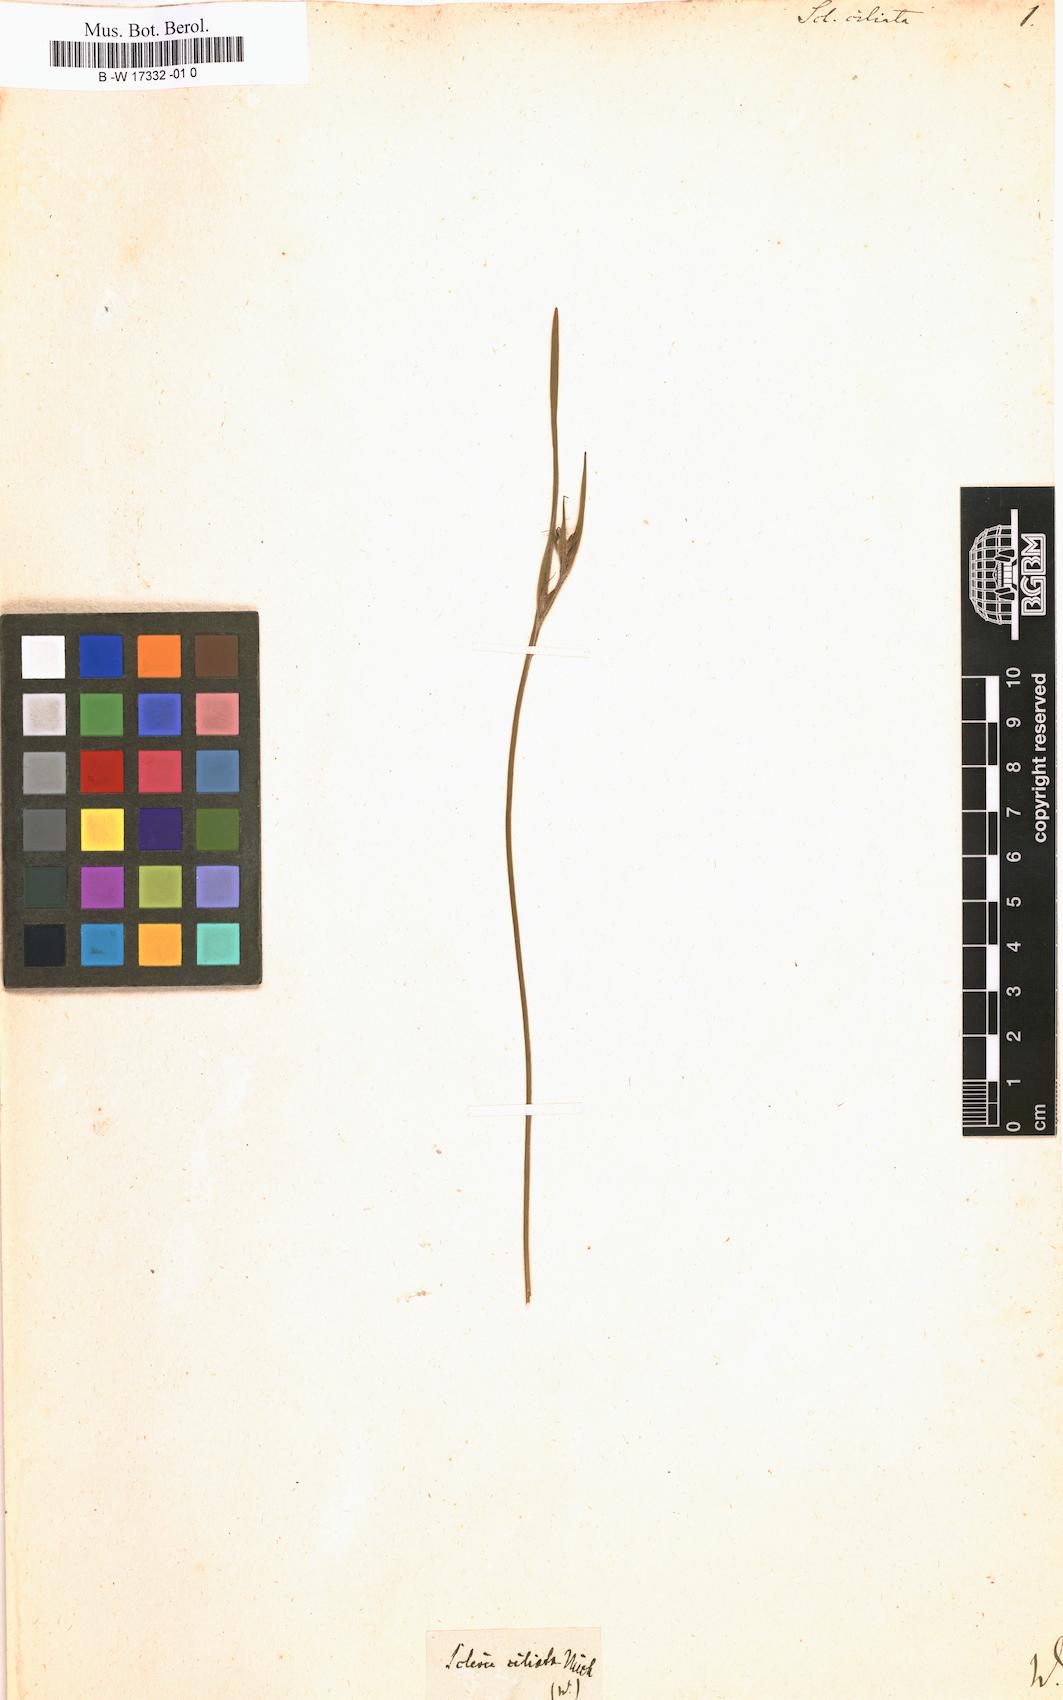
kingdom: Plantae
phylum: Tracheophyta
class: Liliopsida
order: Poales
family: Cyperaceae
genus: Scleria
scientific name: Scleria ciliata
